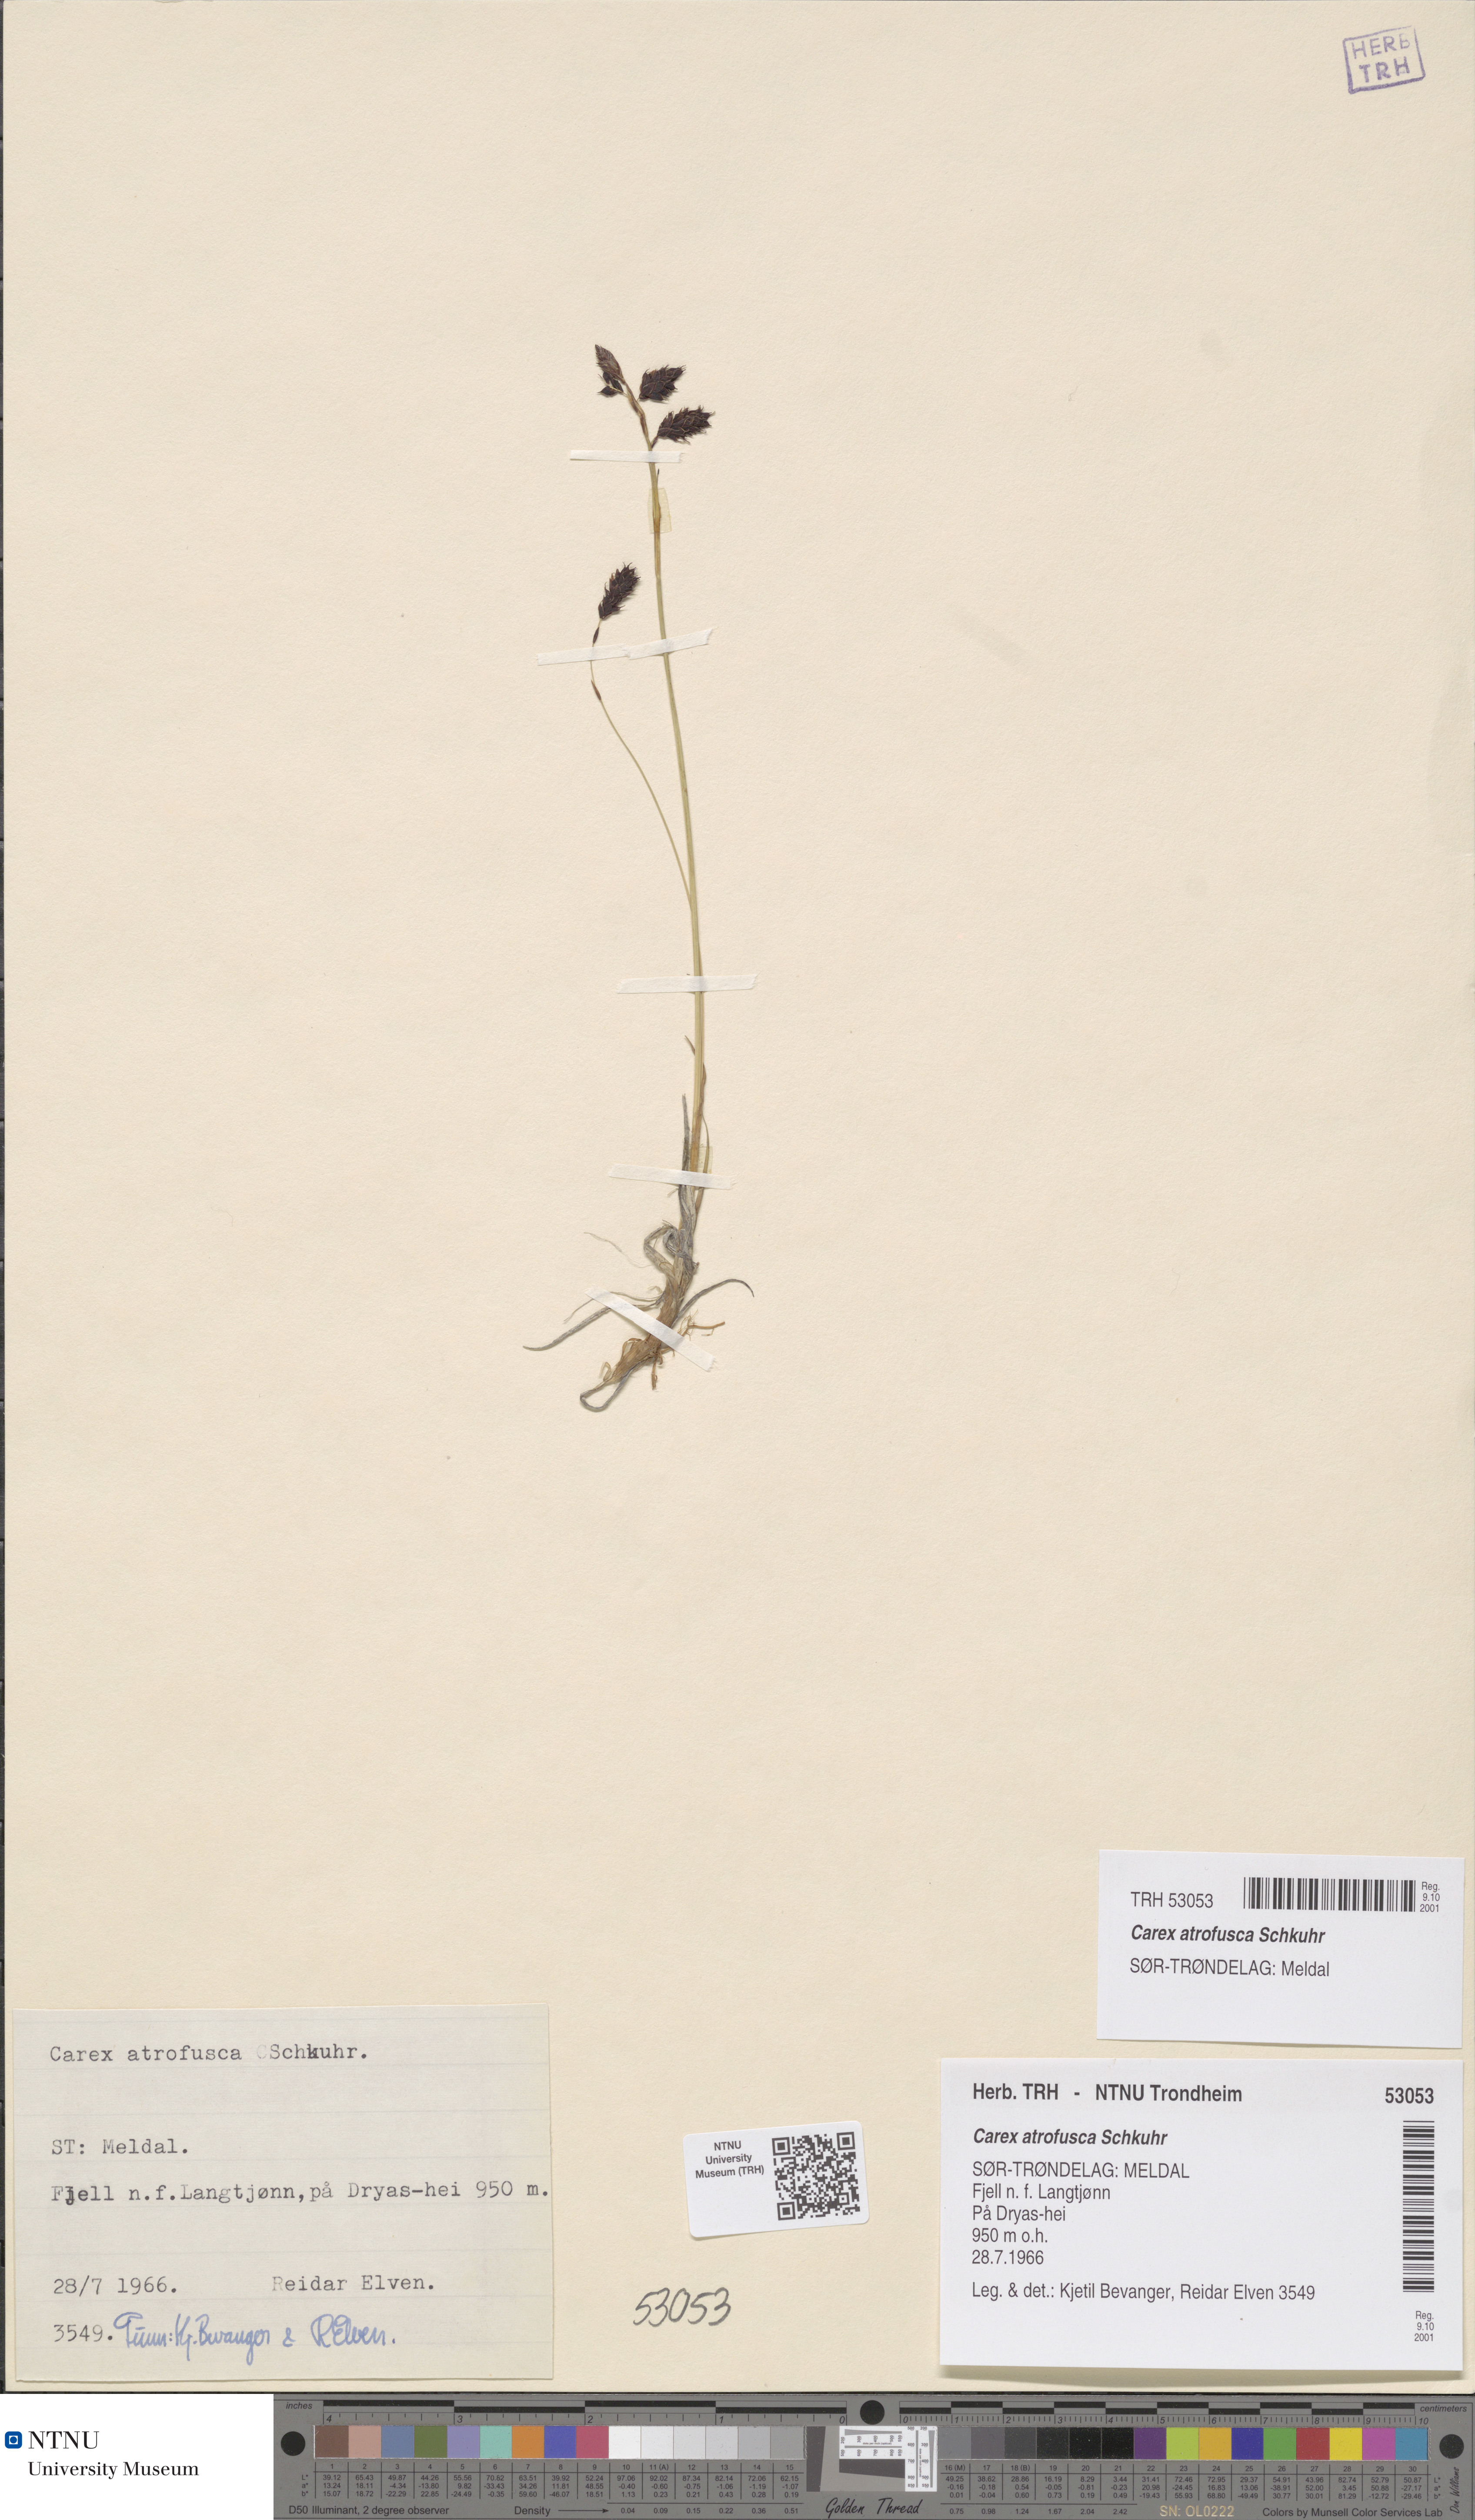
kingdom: Plantae
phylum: Tracheophyta
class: Liliopsida
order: Poales
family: Cyperaceae
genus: Carex
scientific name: Carex atrofusca
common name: Scorched alpine-sedge
